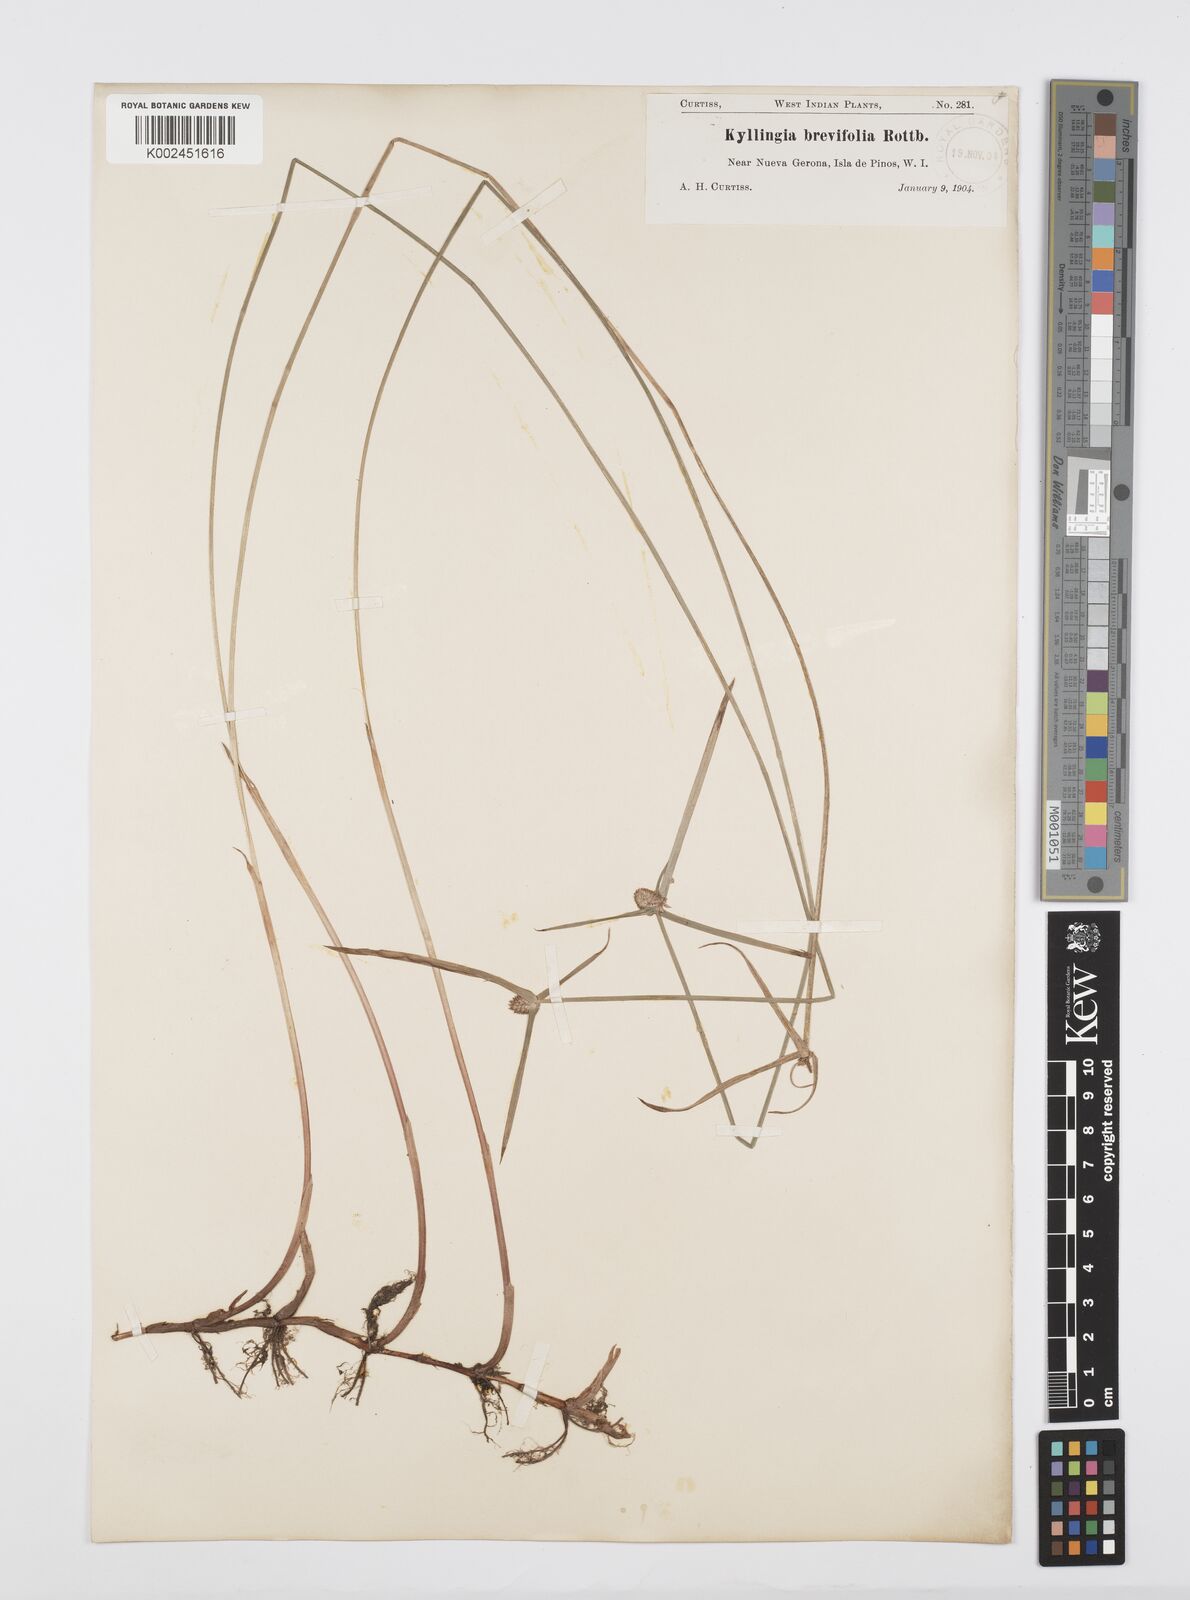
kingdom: Plantae
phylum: Tracheophyta
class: Liliopsida
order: Poales
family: Cyperaceae
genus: Cyperus
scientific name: Cyperus brevifolius
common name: Globe kyllinga
